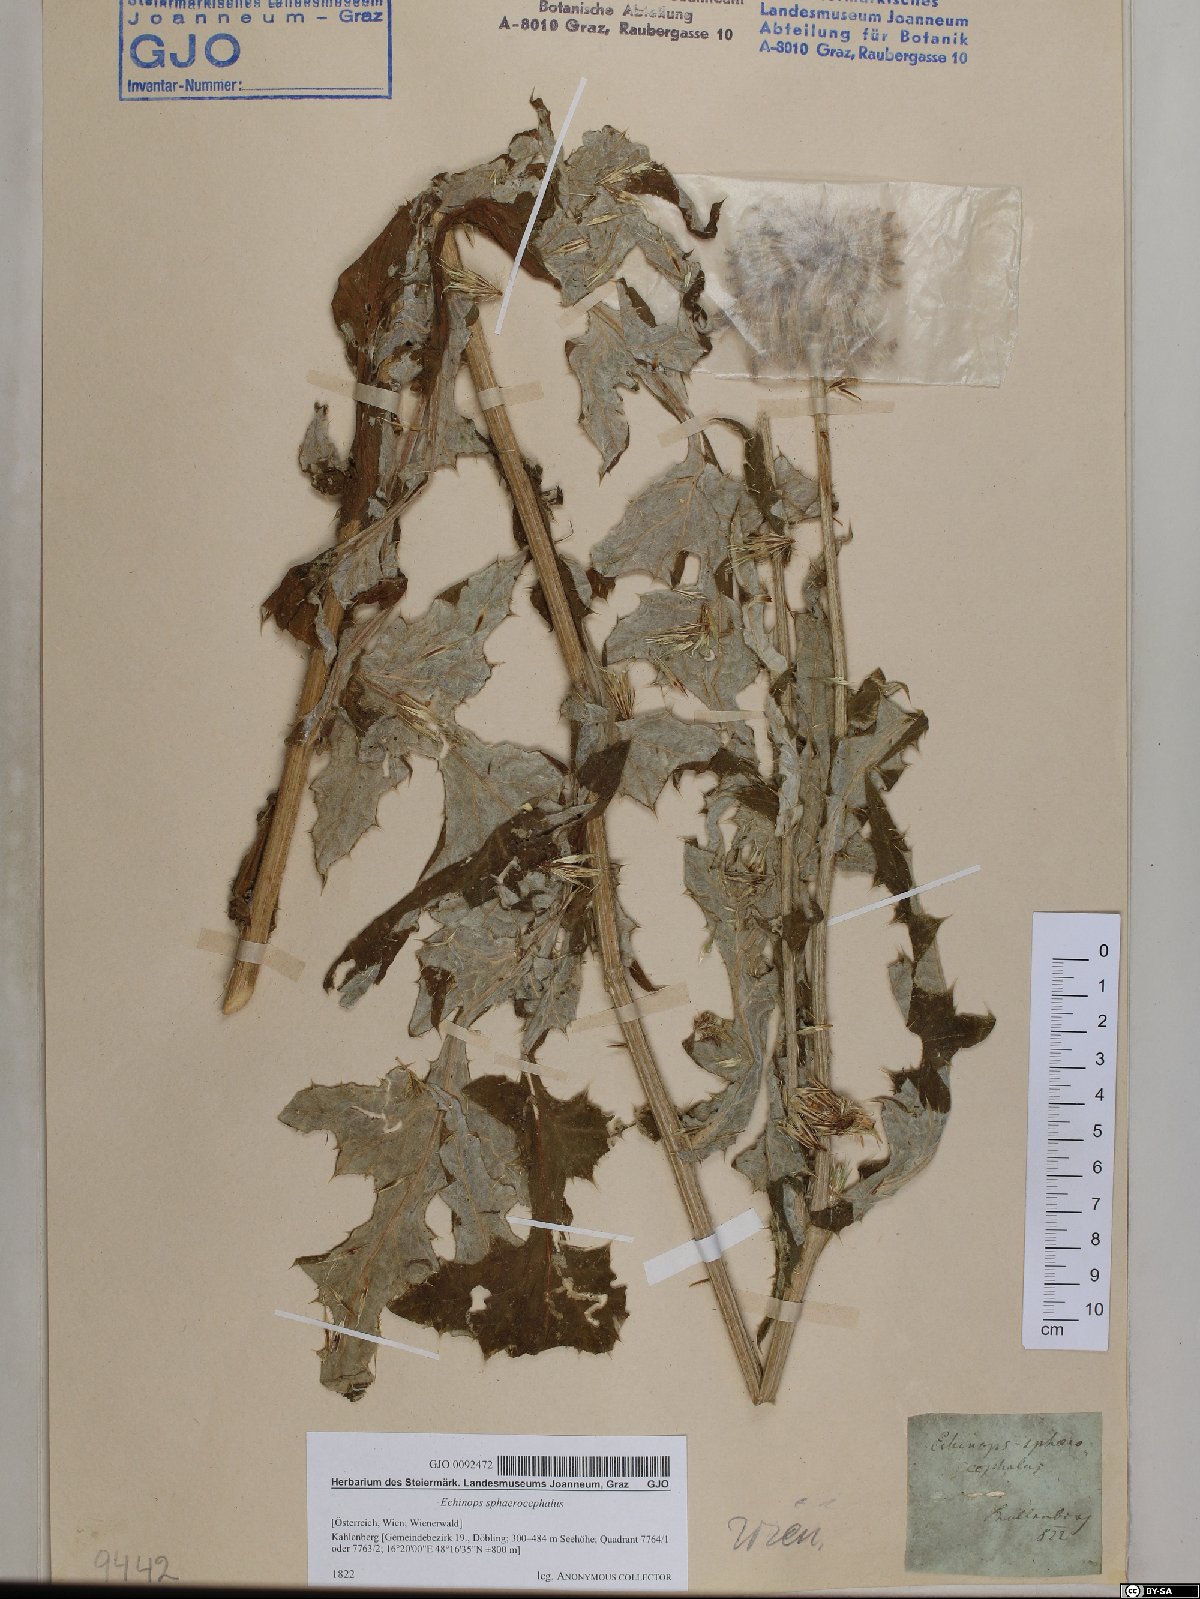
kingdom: Plantae
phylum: Tracheophyta
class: Magnoliopsida
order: Asterales
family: Asteraceae
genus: Echinops
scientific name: Echinops sphaerocephalus
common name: Glandular globe-thistle
